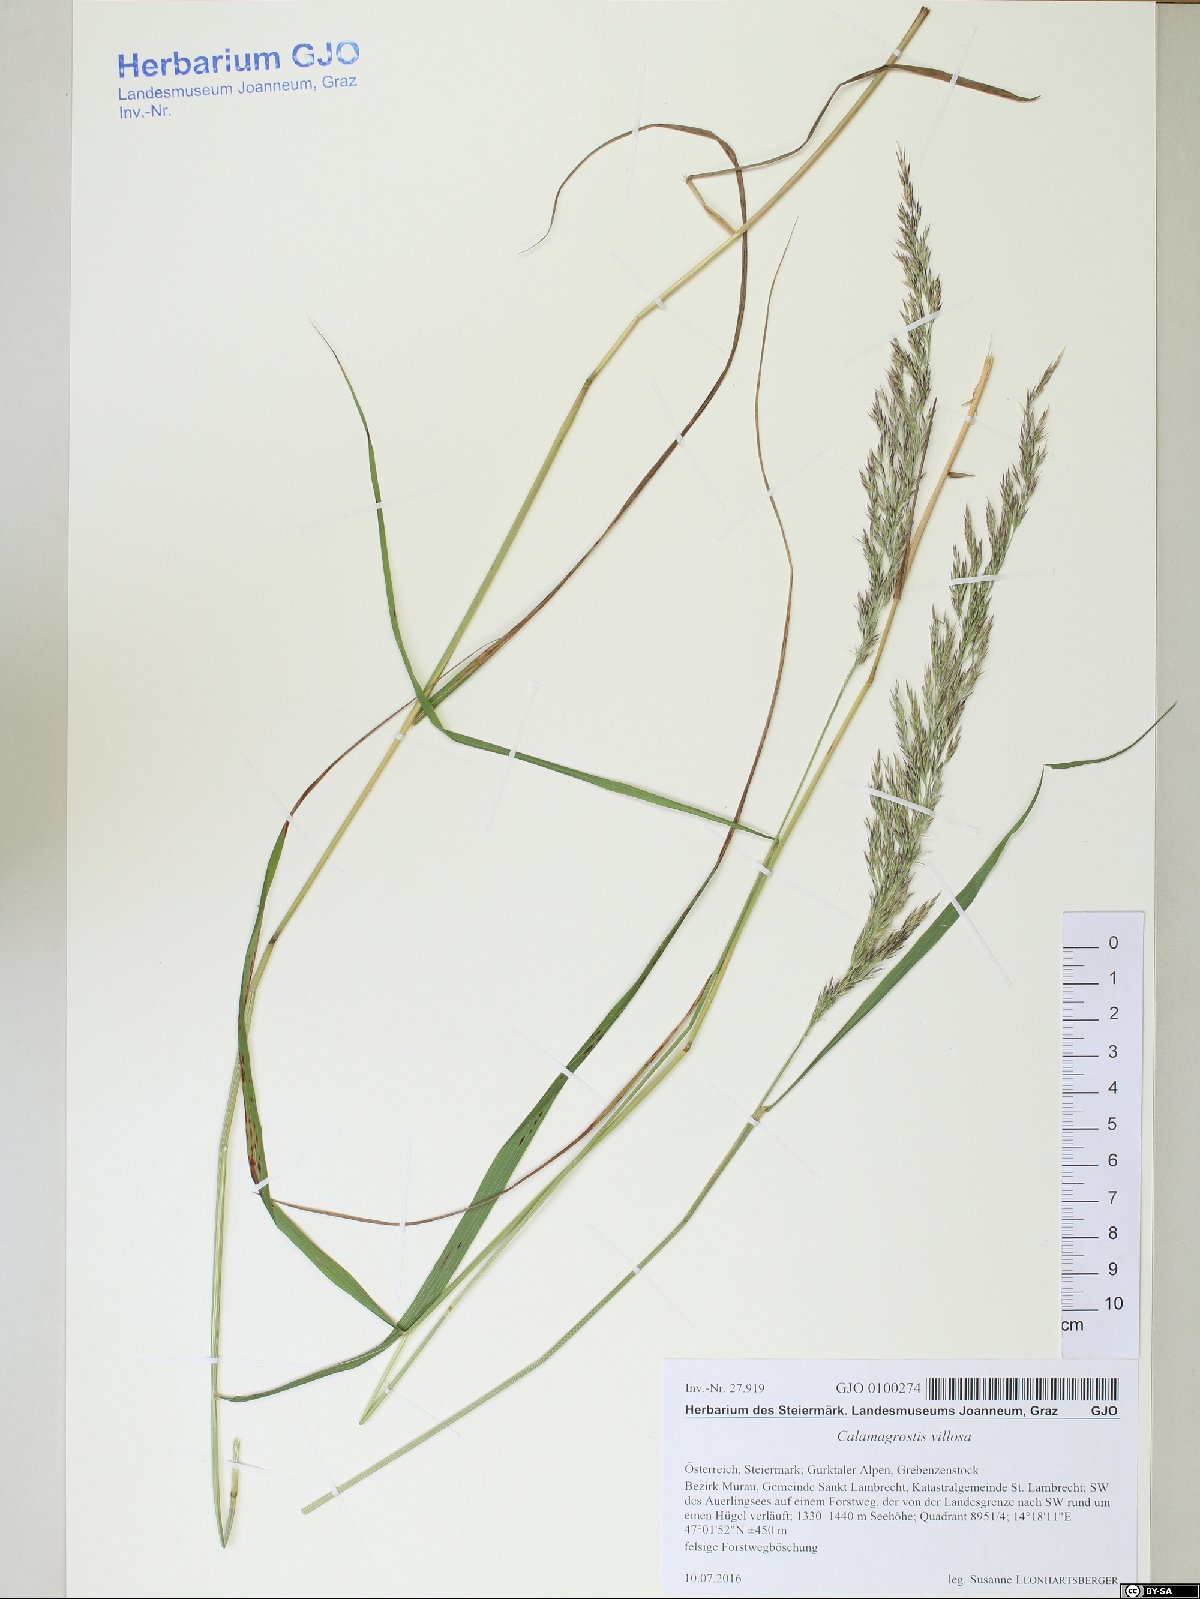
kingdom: Plantae
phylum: Tracheophyta
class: Liliopsida
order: Poales
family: Poaceae
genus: Calamagrostis
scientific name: Calamagrostis villosa
